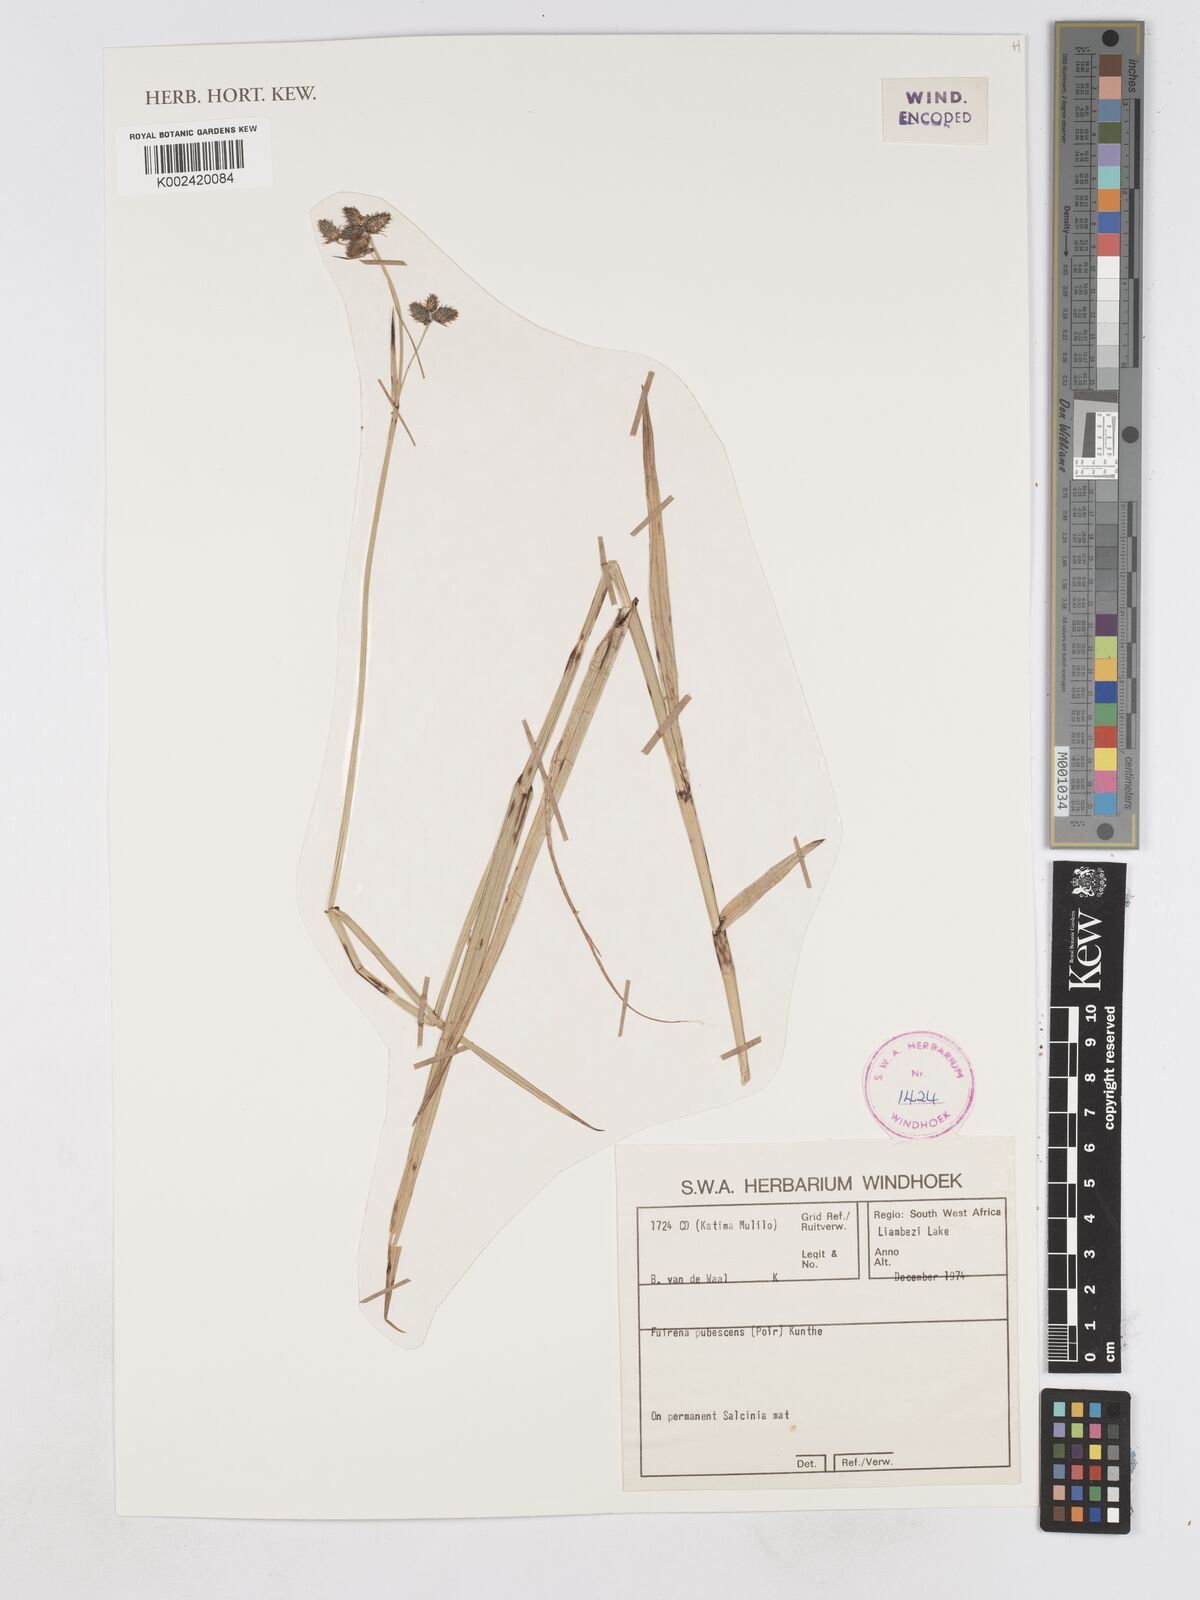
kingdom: Plantae
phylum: Tracheophyta
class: Liliopsida
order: Poales
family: Cyperaceae
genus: Fuirena
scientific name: Fuirena pubescens
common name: Hairy sedge
